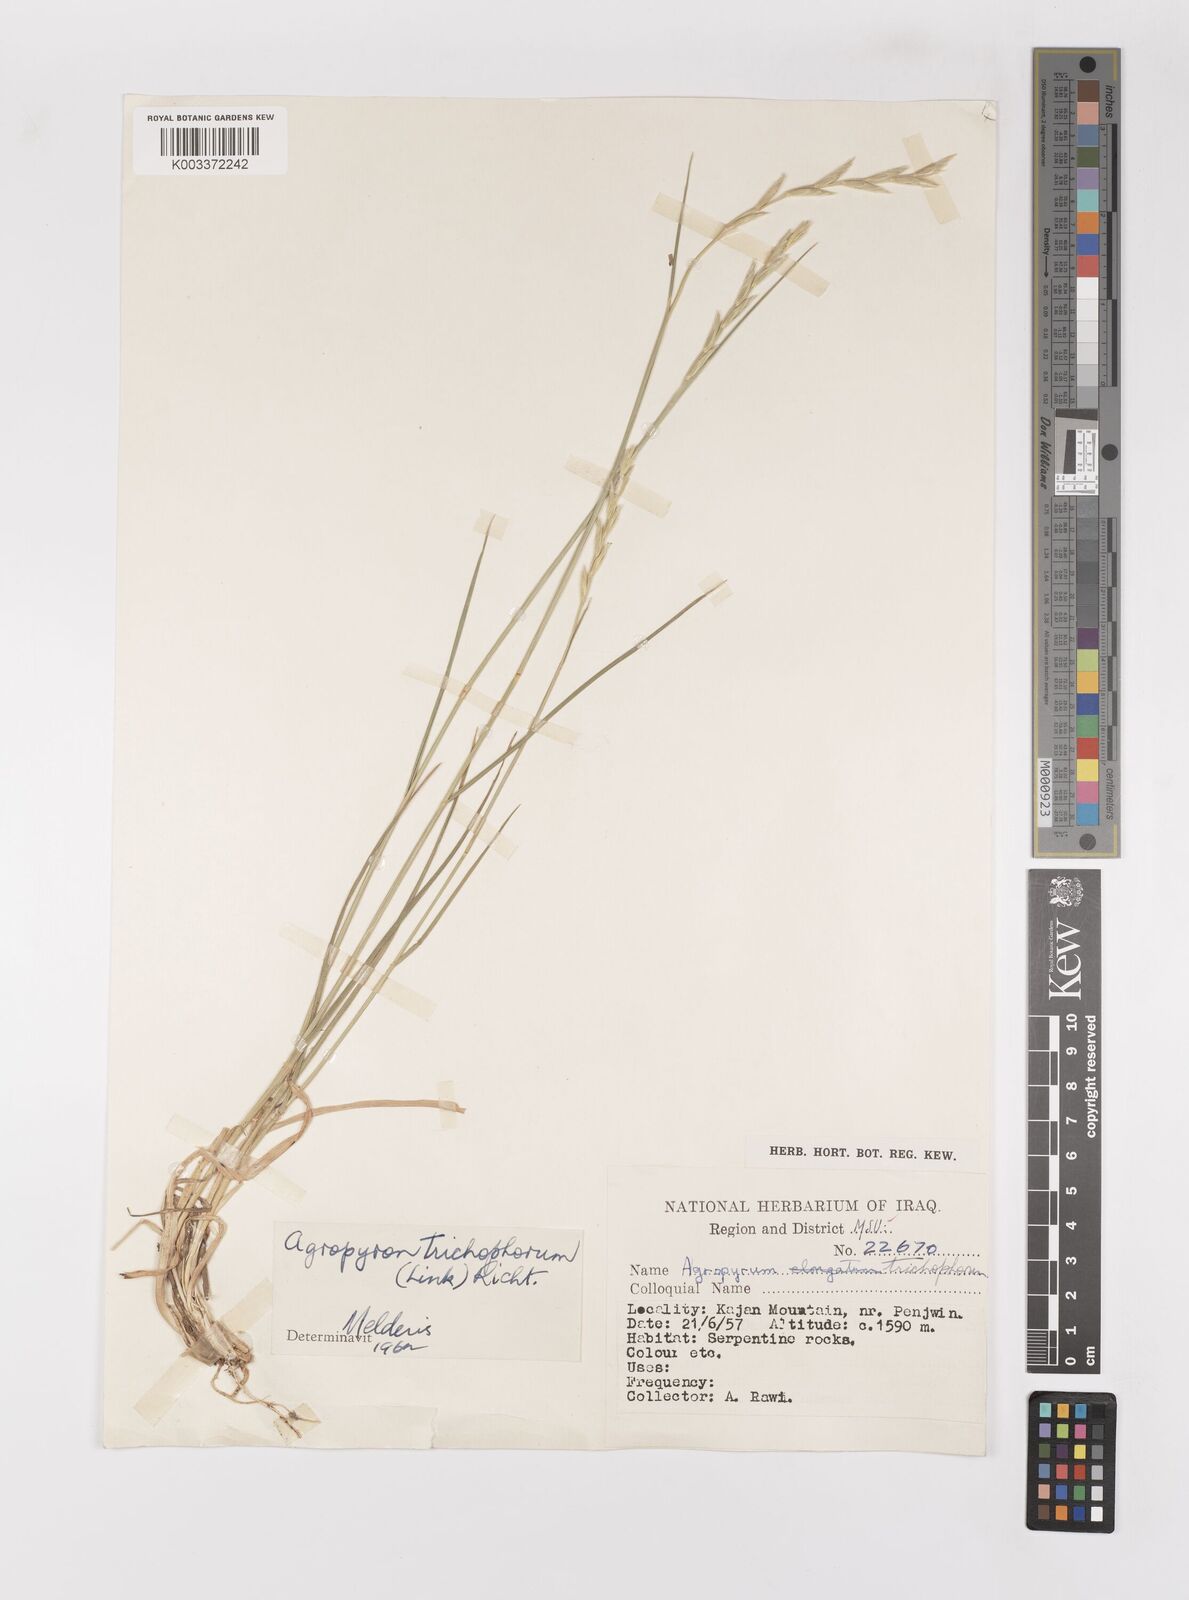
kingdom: Plantae
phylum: Tracheophyta
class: Liliopsida
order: Poales
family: Poaceae
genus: Thinopyrum
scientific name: Thinopyrum intermedium
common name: Intermediate wheatgrass
